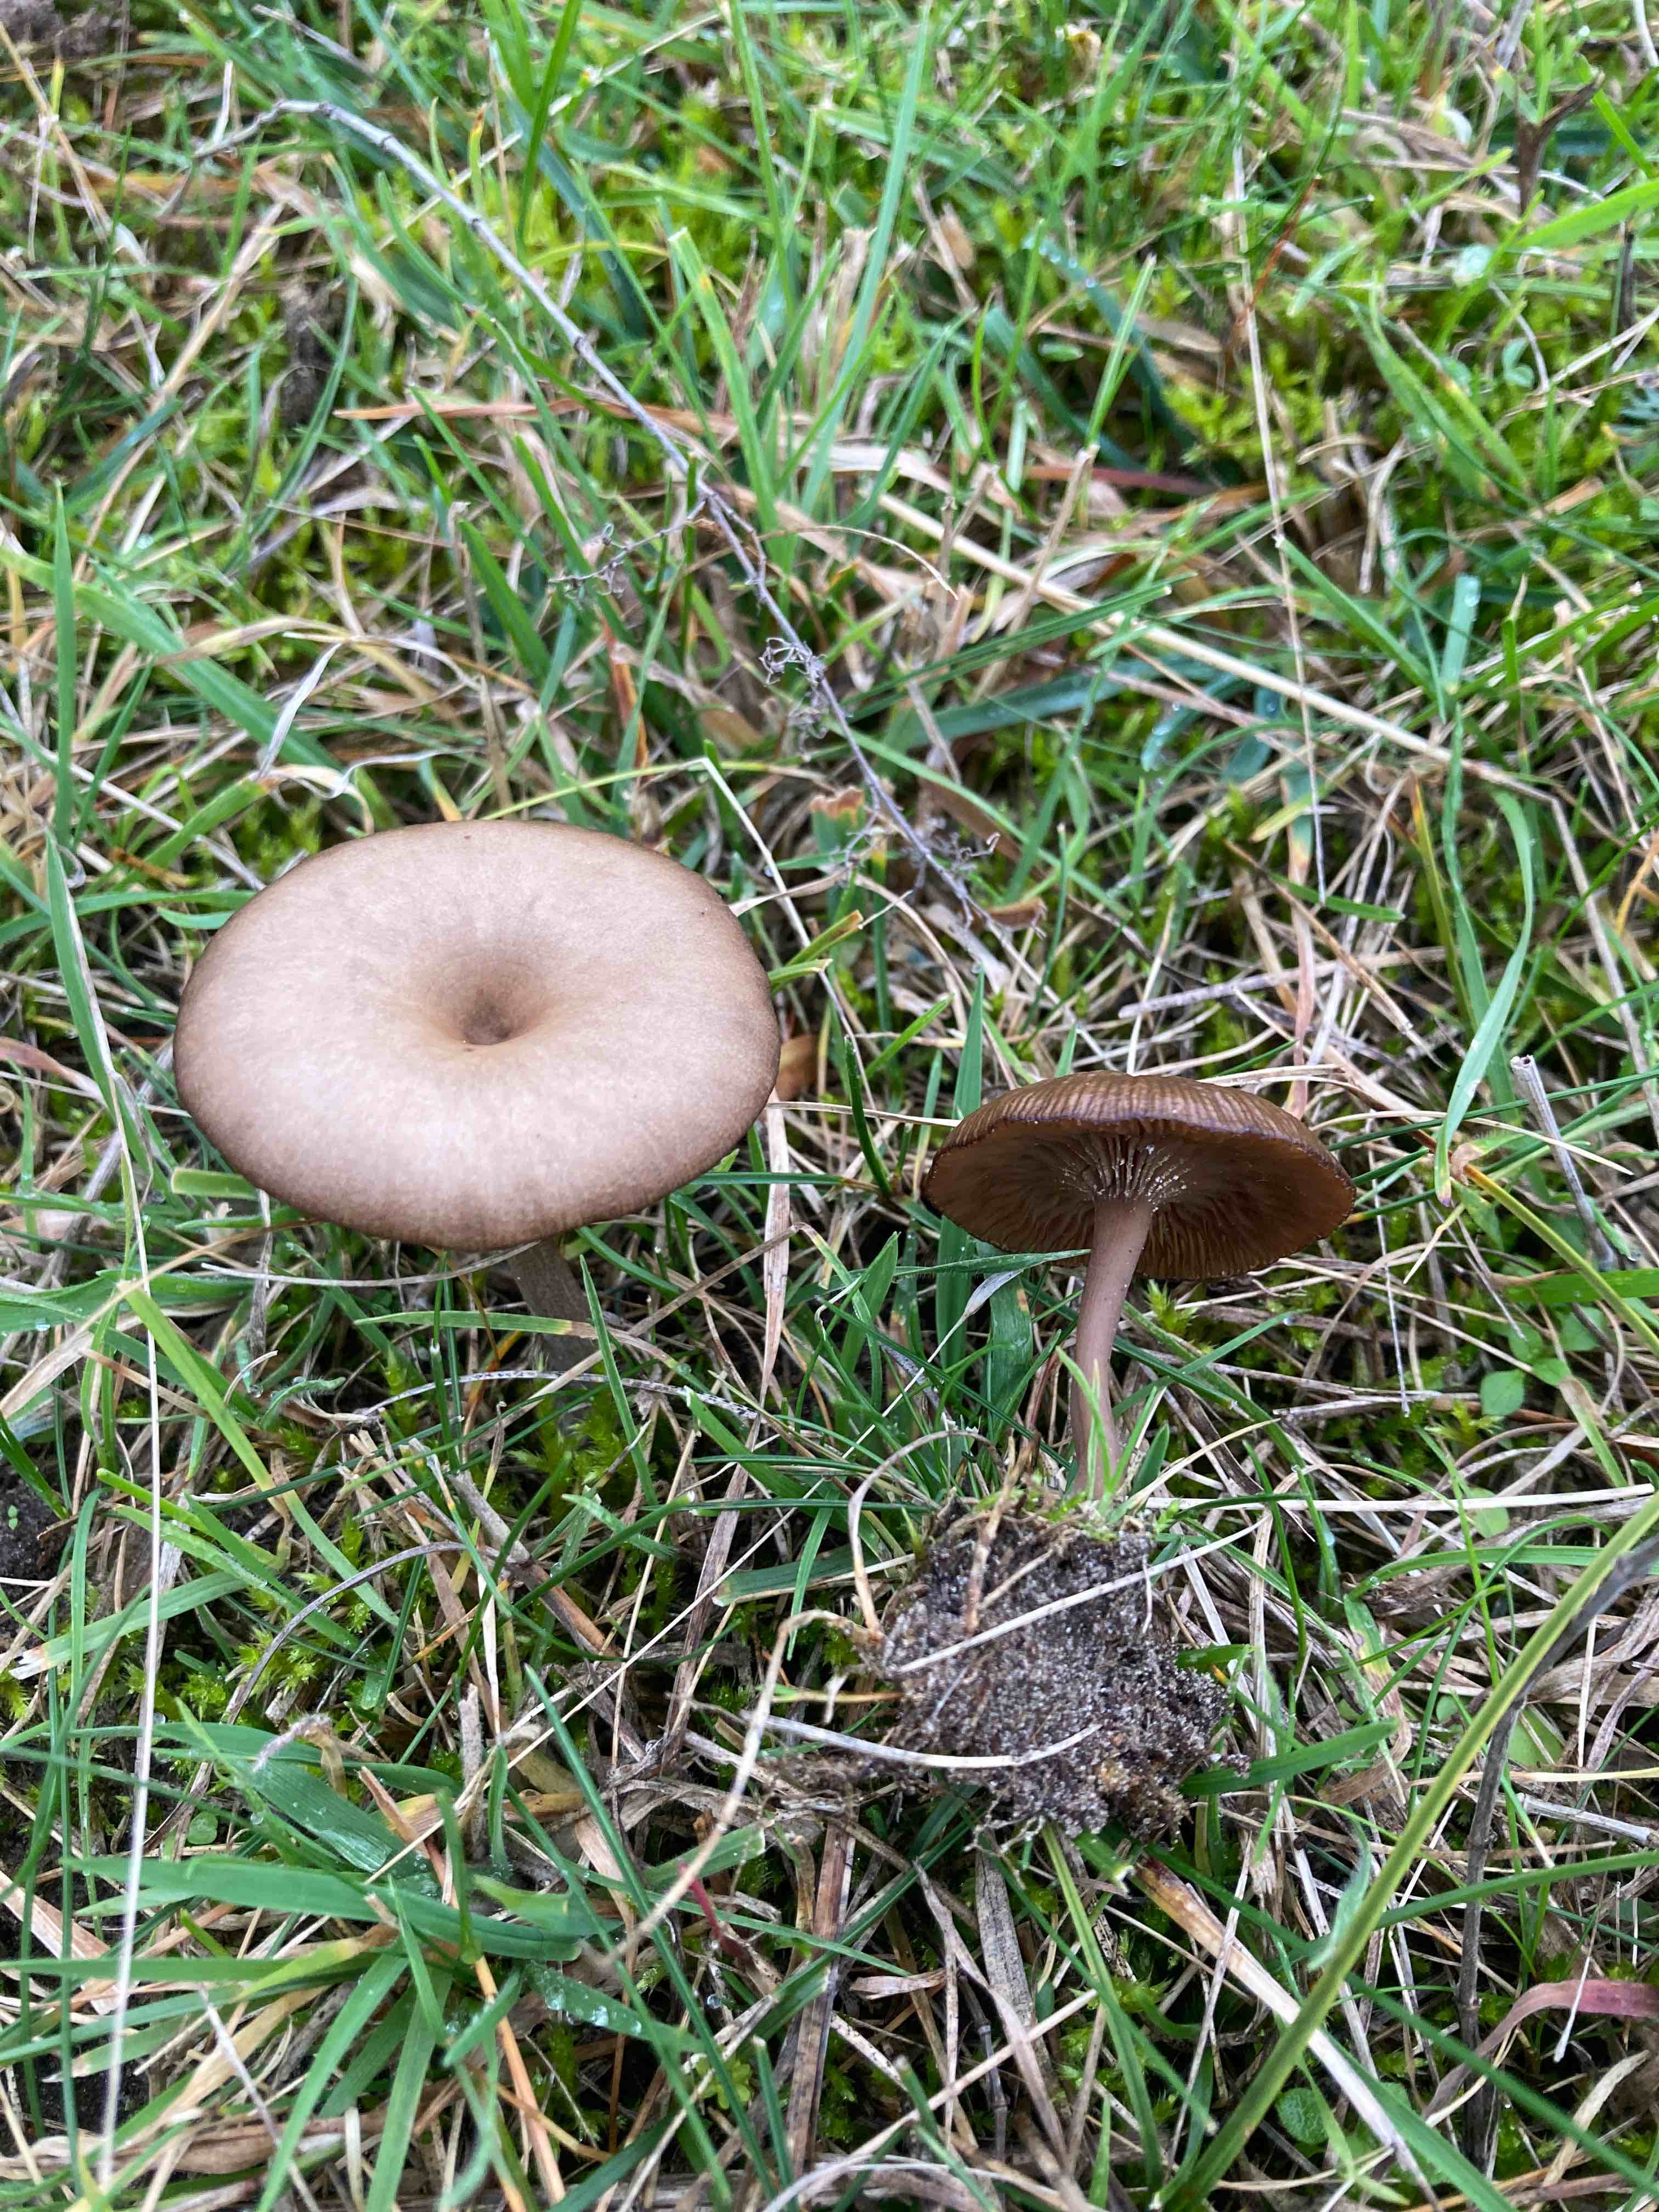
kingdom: Fungi
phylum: Basidiomycota
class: Agaricomycetes
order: Agaricales
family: Pseudoclitocybaceae
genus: Pseudoclitocybe
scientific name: Pseudoclitocybe expallens
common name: lille bægertragthat
